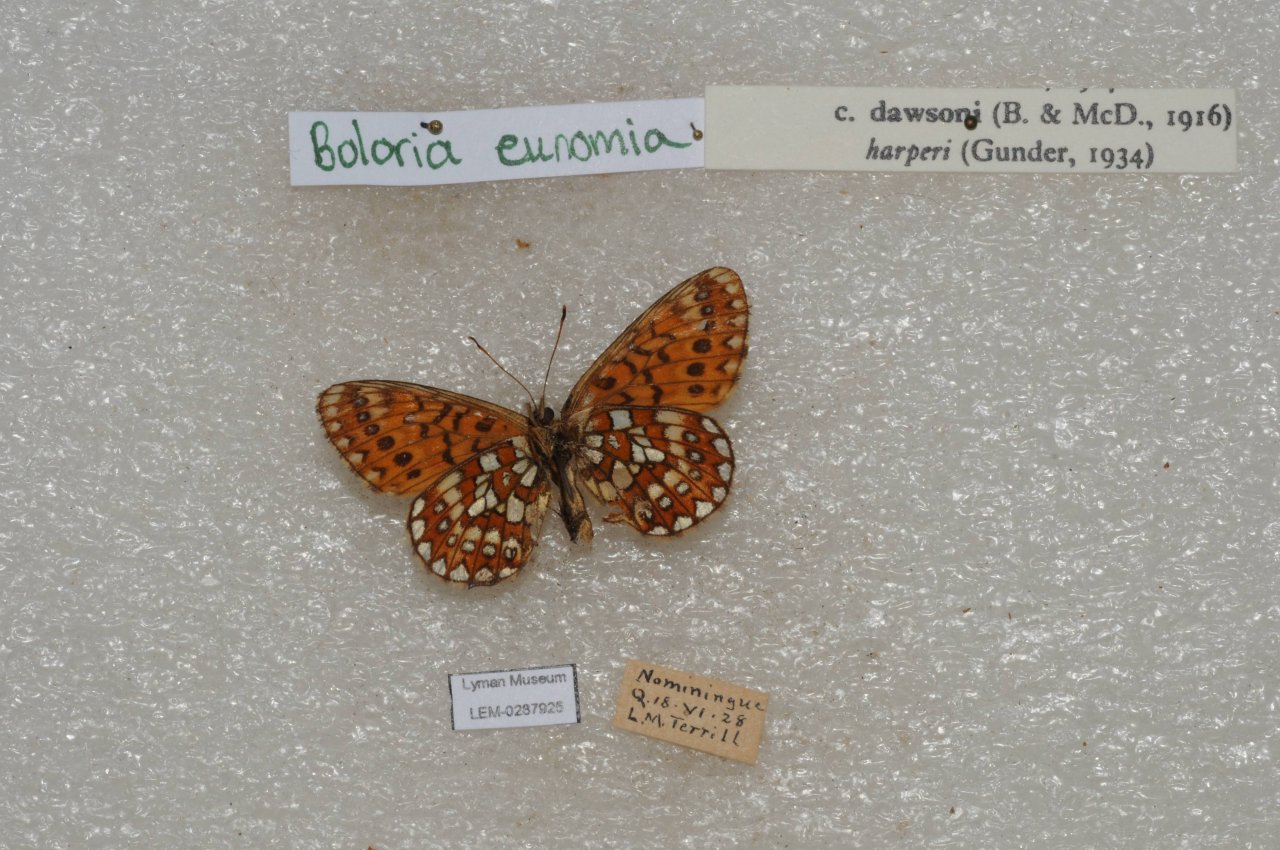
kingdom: Animalia
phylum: Arthropoda
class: Insecta
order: Lepidoptera
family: Nymphalidae
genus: Boloria
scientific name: Boloria eunomia
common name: Bog Fritillary
